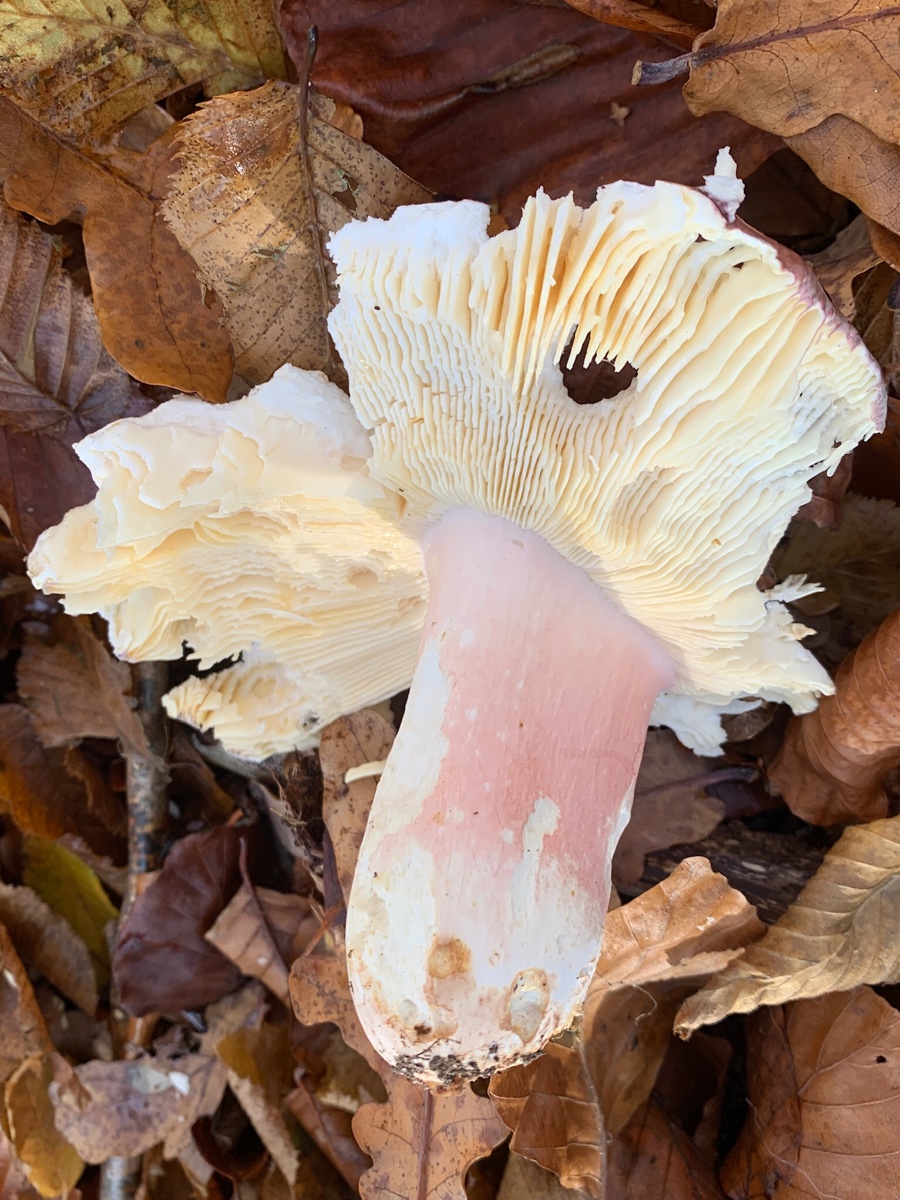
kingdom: Fungi
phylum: Basidiomycota
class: Agaricomycetes
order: Russulales
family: Russulaceae
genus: Russula
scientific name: Russula olivacea
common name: stor skørhat
